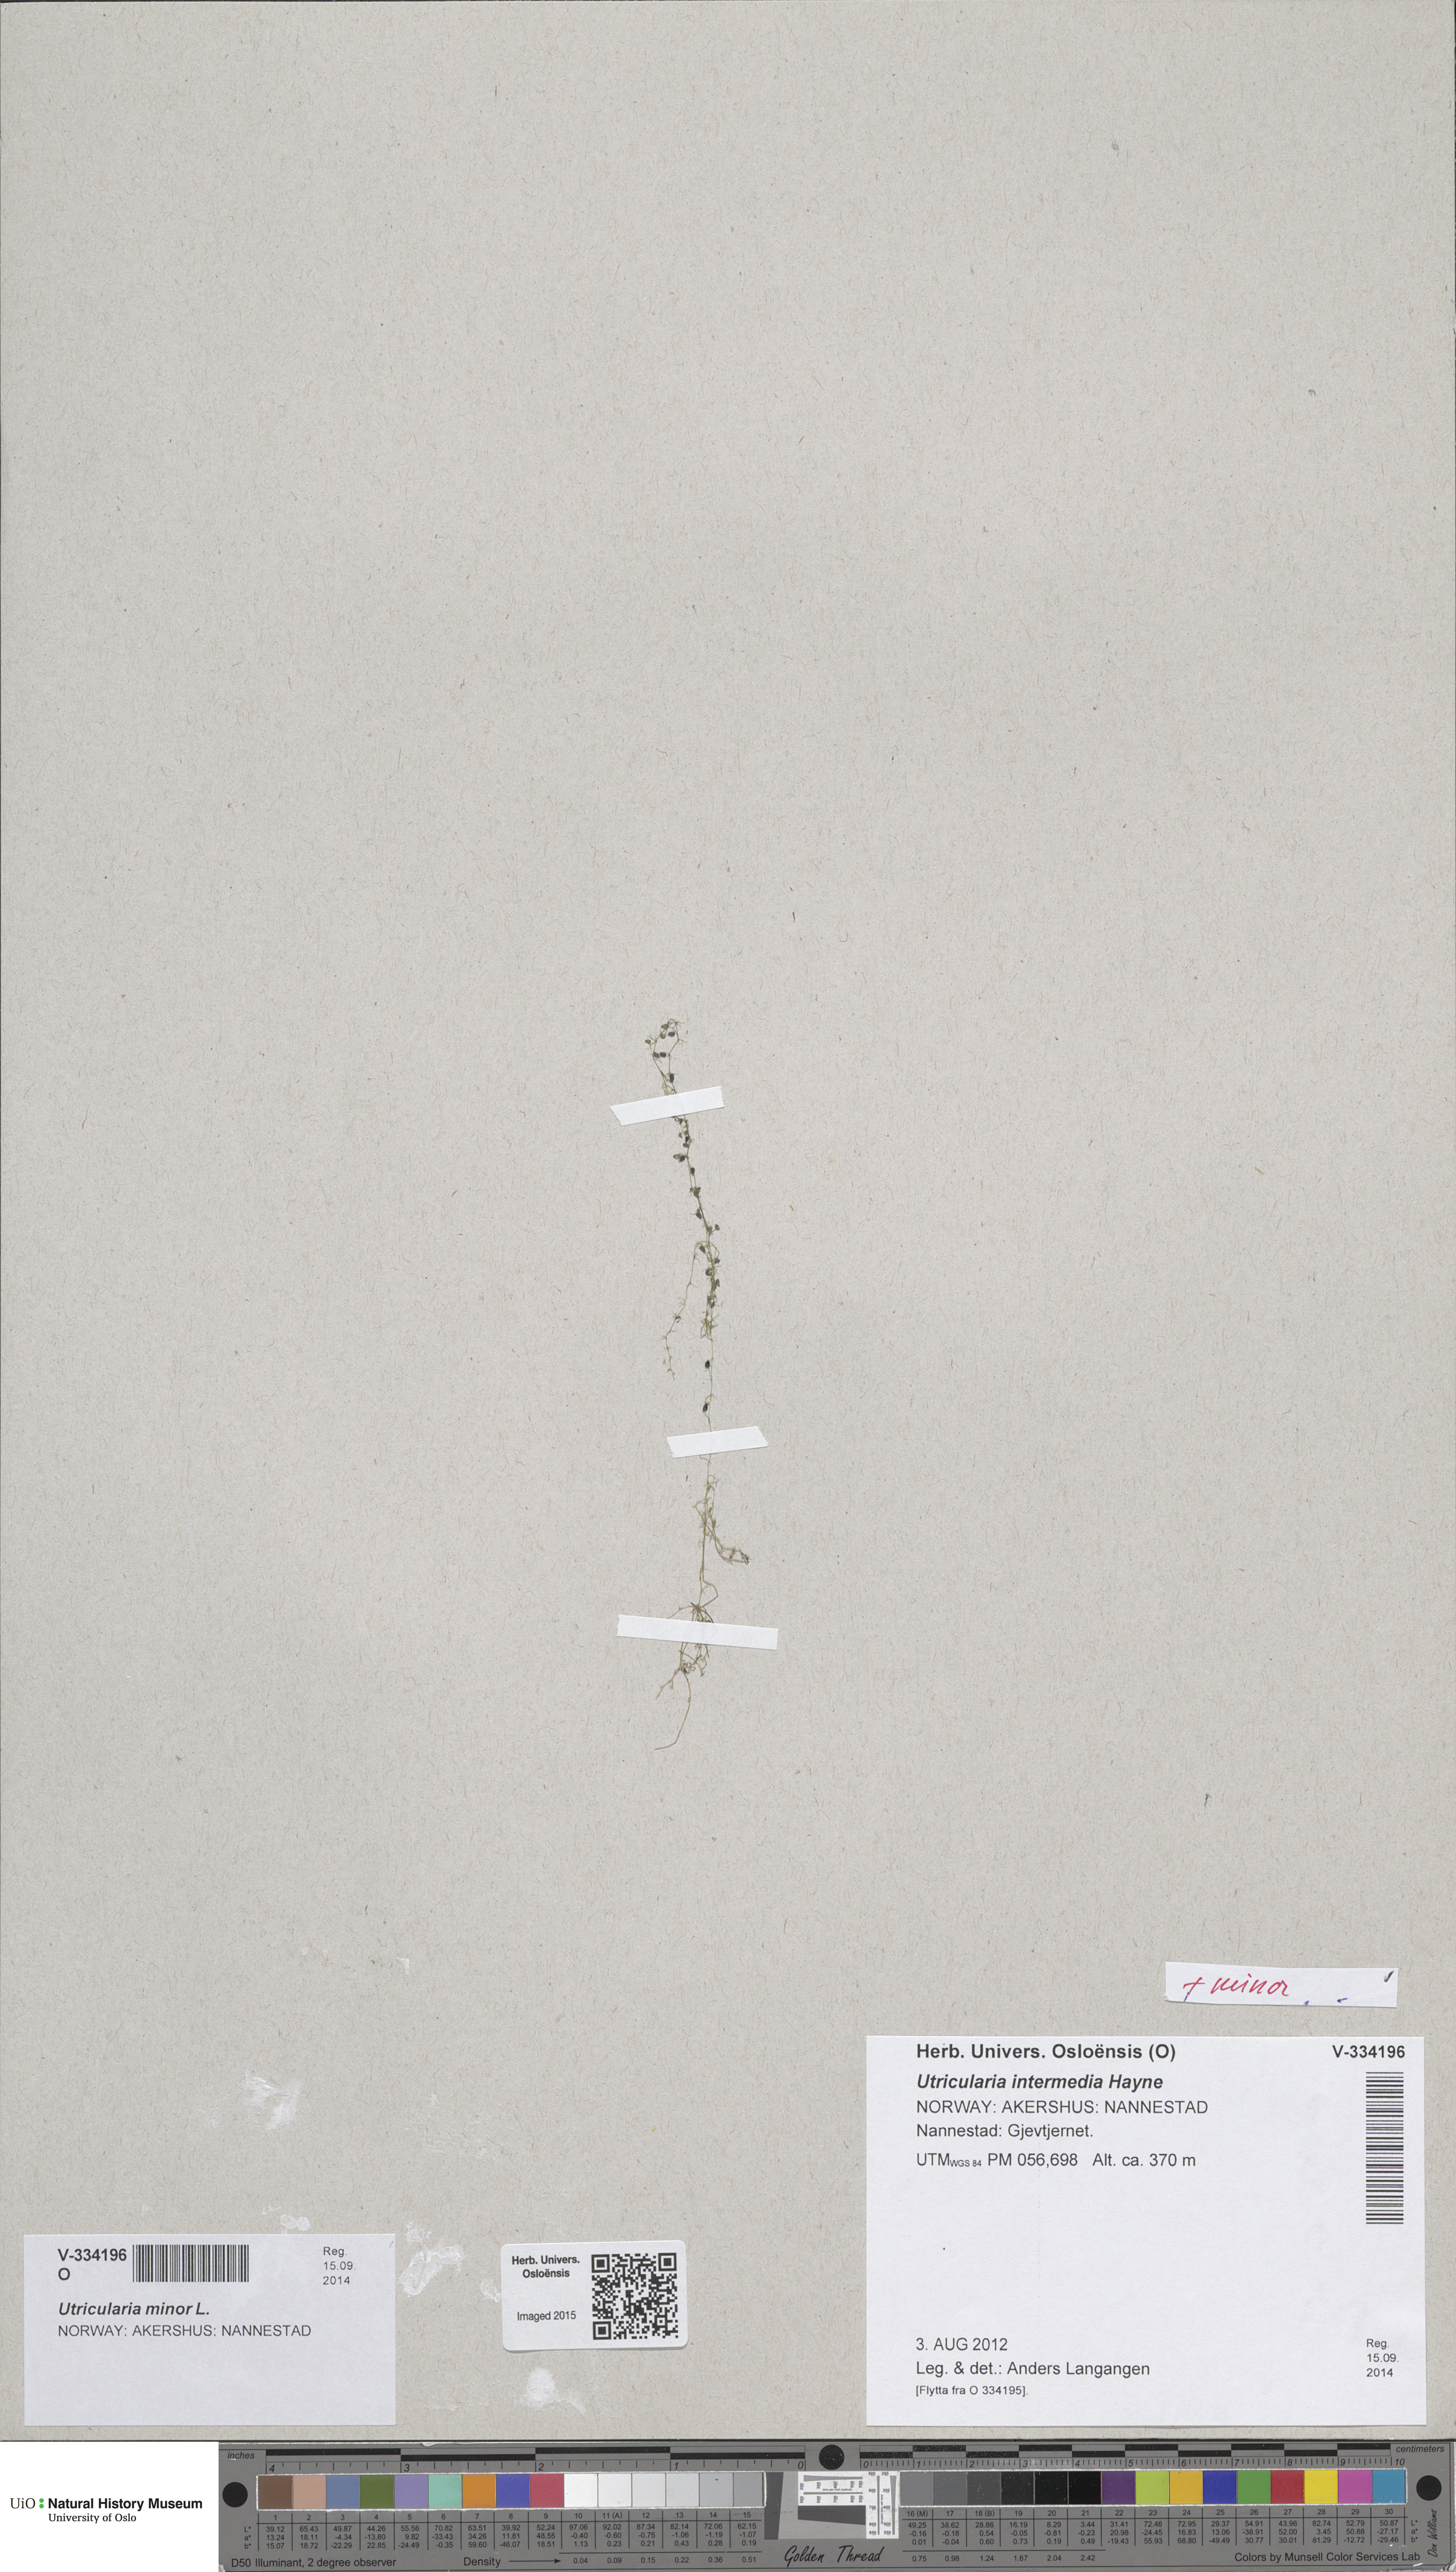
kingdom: Plantae
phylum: Tracheophyta
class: Magnoliopsida
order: Lamiales
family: Lentibulariaceae
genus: Utricularia
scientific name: Utricularia minor
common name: Lesser bladderwort
